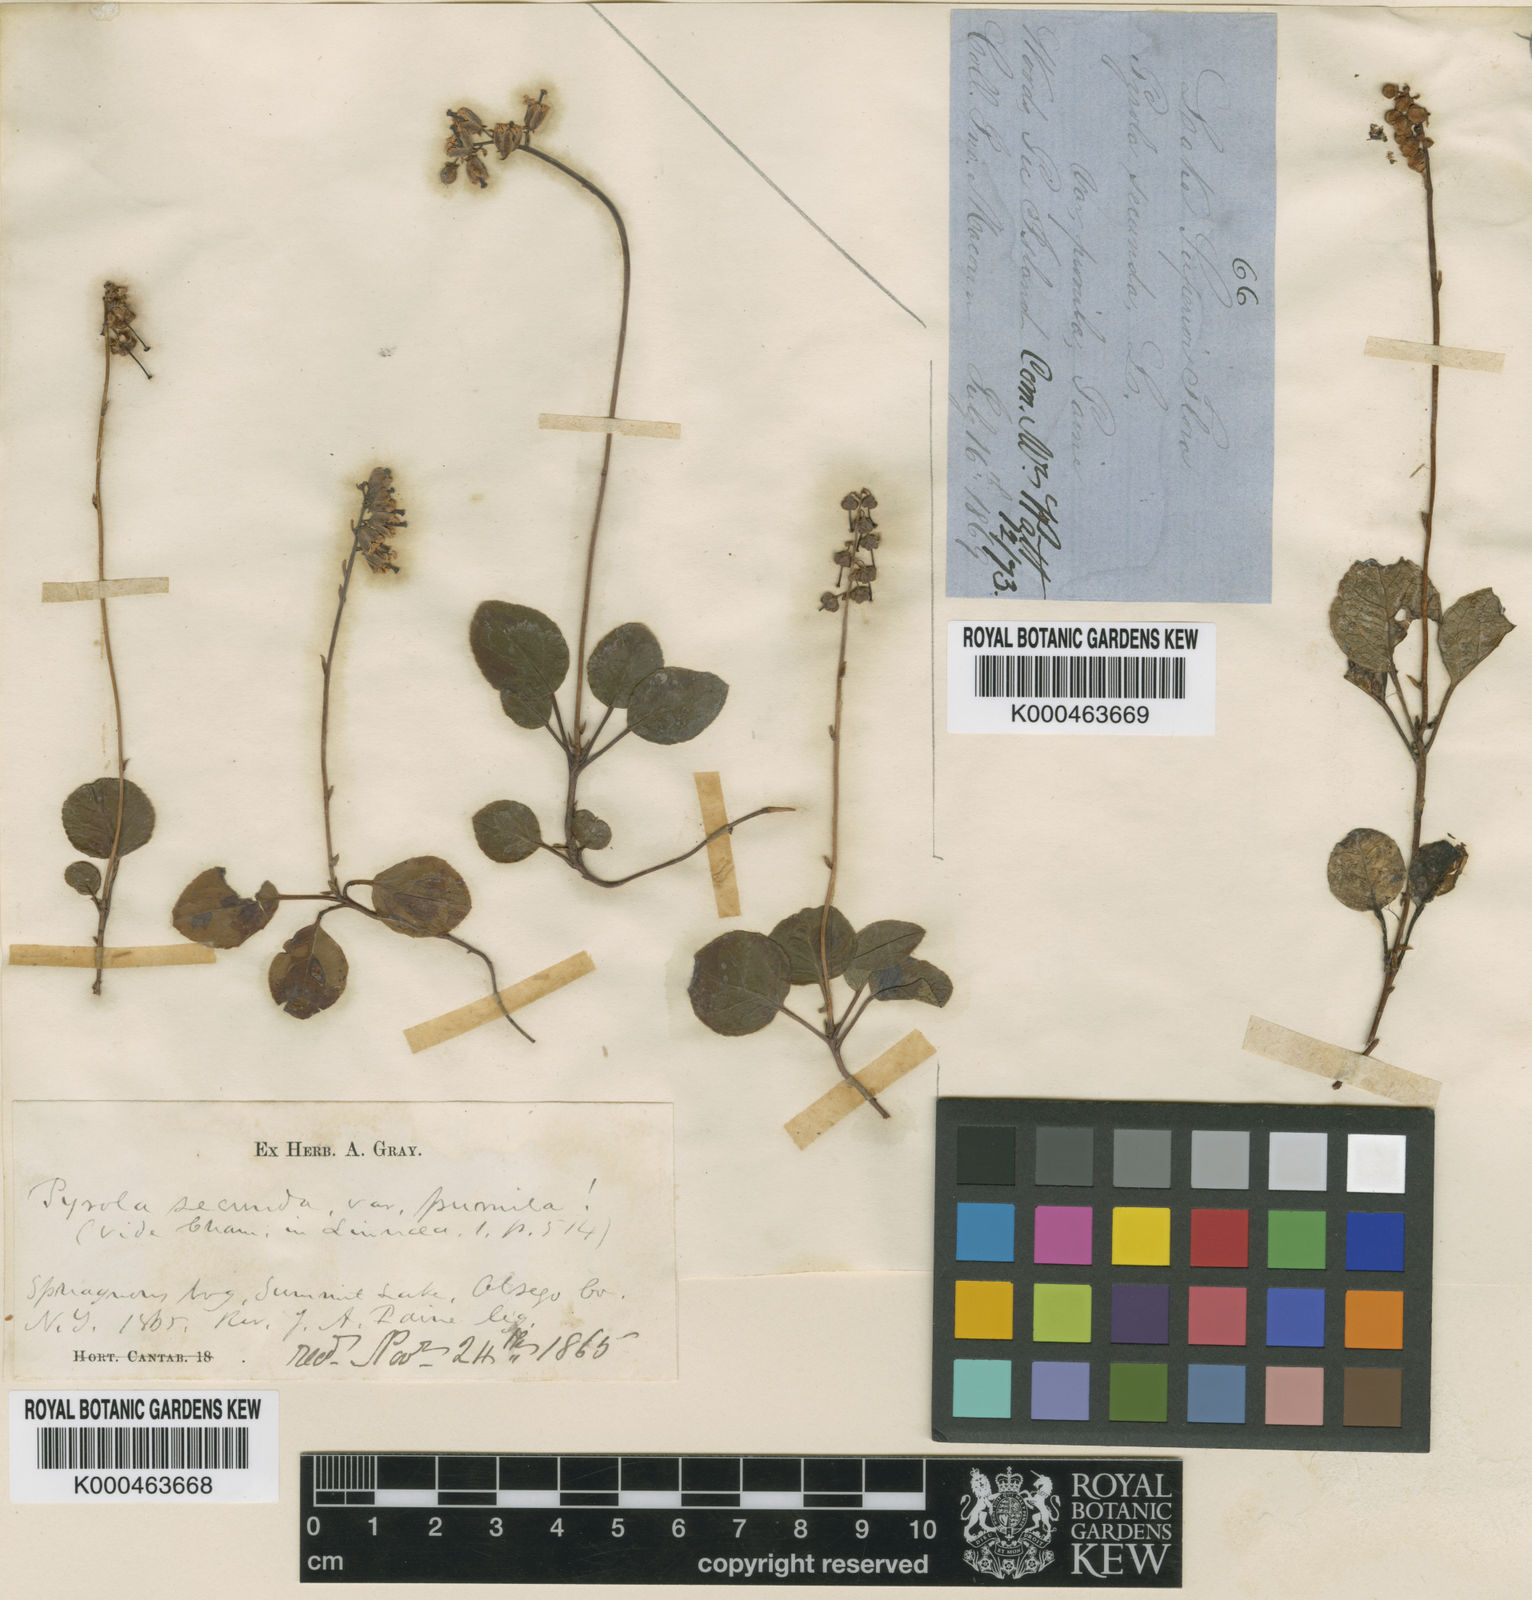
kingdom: Plantae
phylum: Tracheophyta
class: Magnoliopsida
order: Ericales
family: Ericaceae
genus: Orthilia
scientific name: Orthilia secunda
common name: One-sided orthilia
